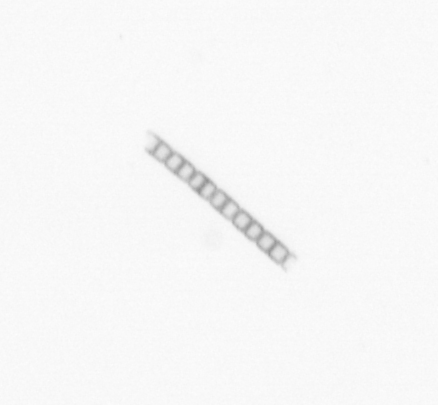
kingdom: Chromista
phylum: Ochrophyta
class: Bacillariophyceae
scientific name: Bacillariophyceae
